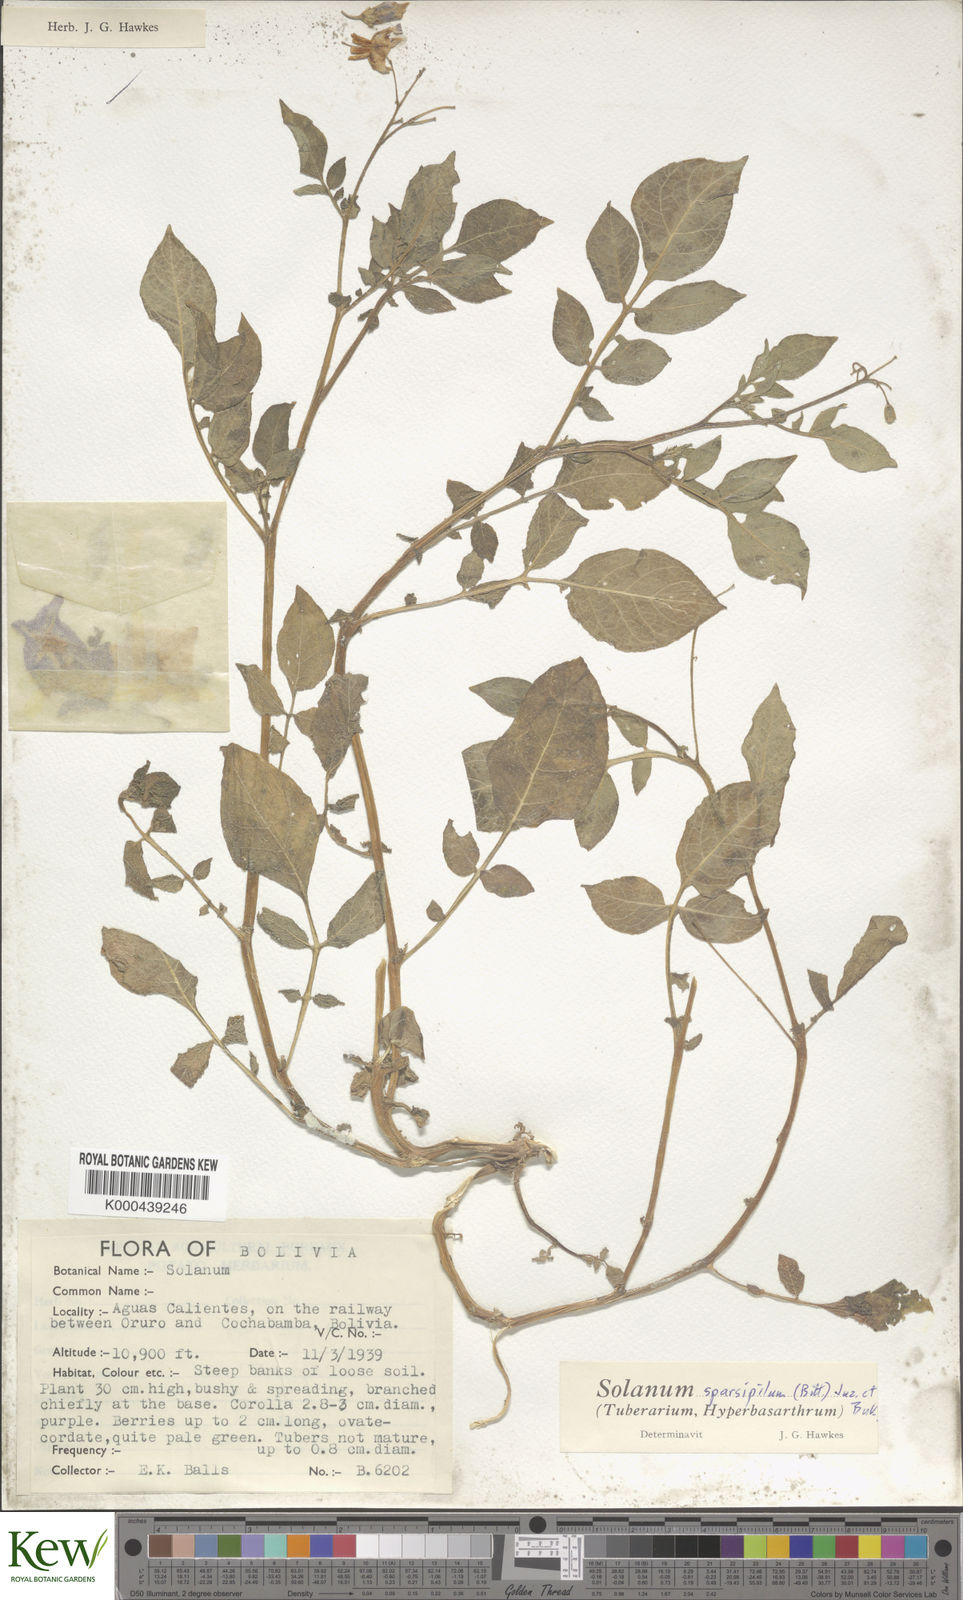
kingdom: Plantae
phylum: Tracheophyta
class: Magnoliopsida
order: Solanales
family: Solanaceae
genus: Solanum
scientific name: Solanum brevicaule
